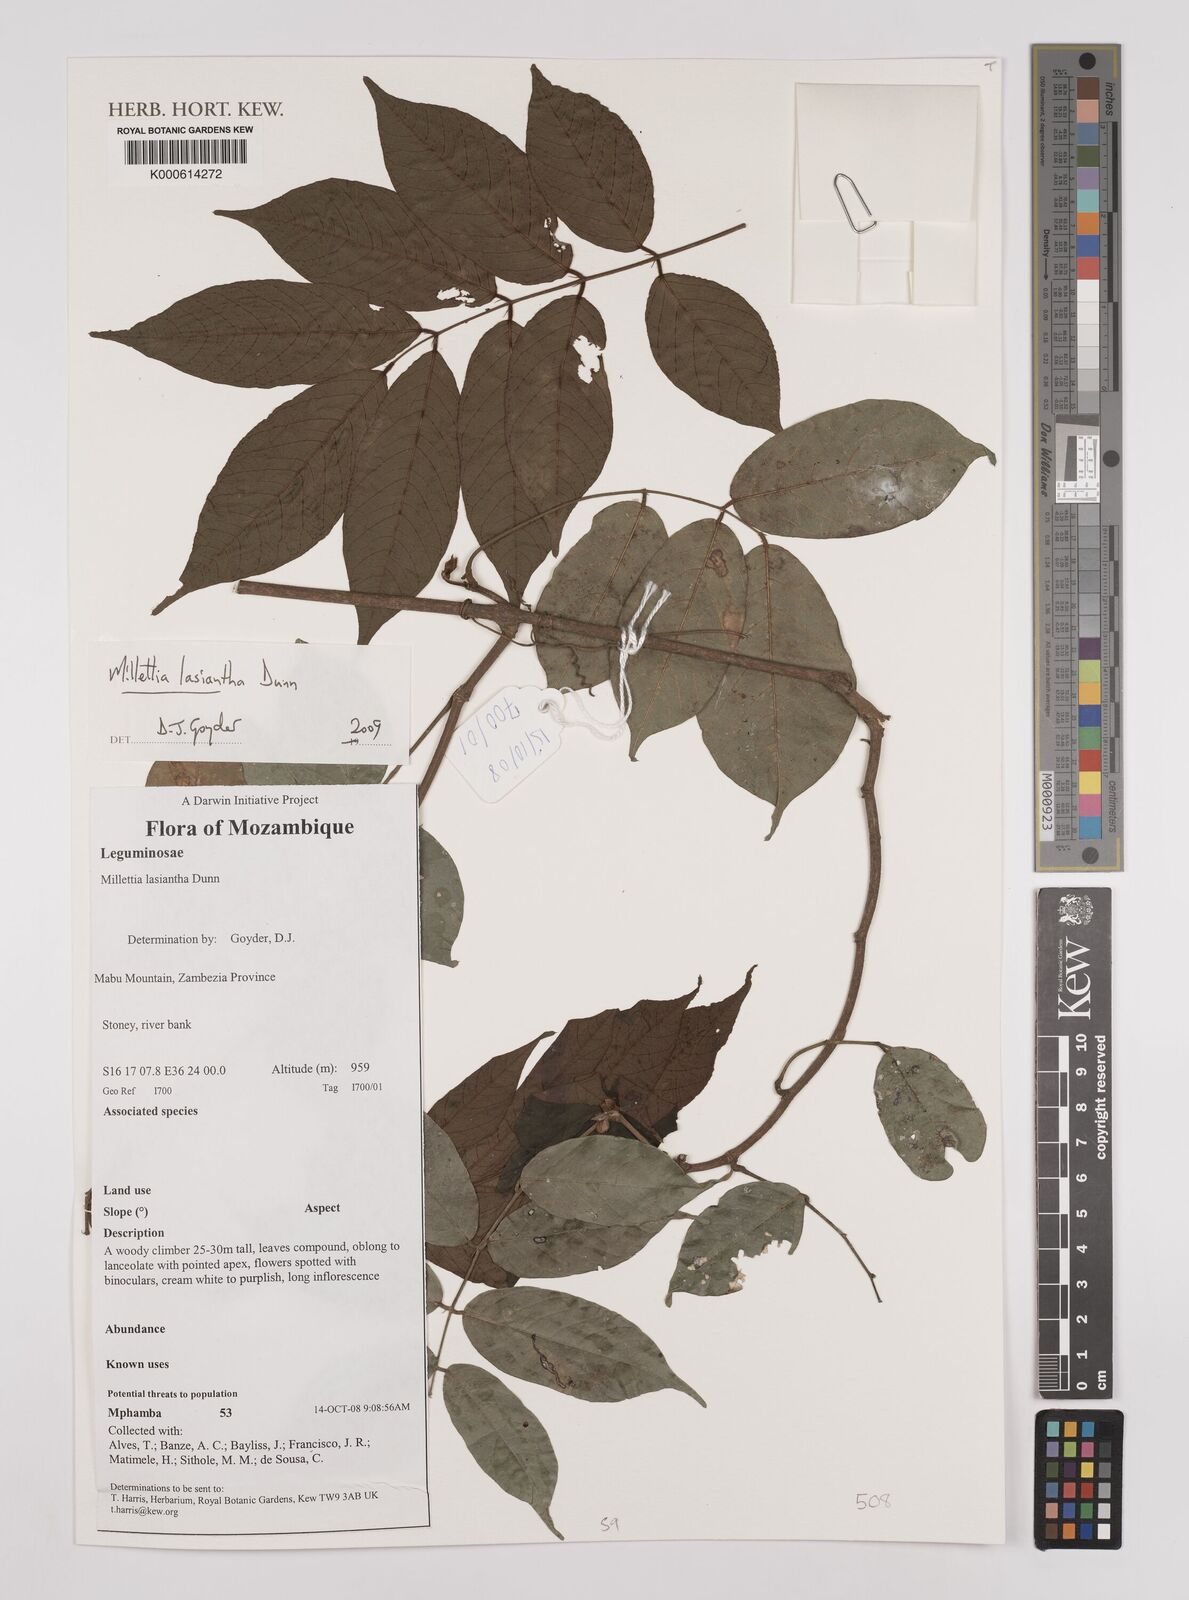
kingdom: Plantae
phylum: Tracheophyta
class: Magnoliopsida
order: Fabales
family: Fabaceae
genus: Millettia
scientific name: Millettia lasiantha
